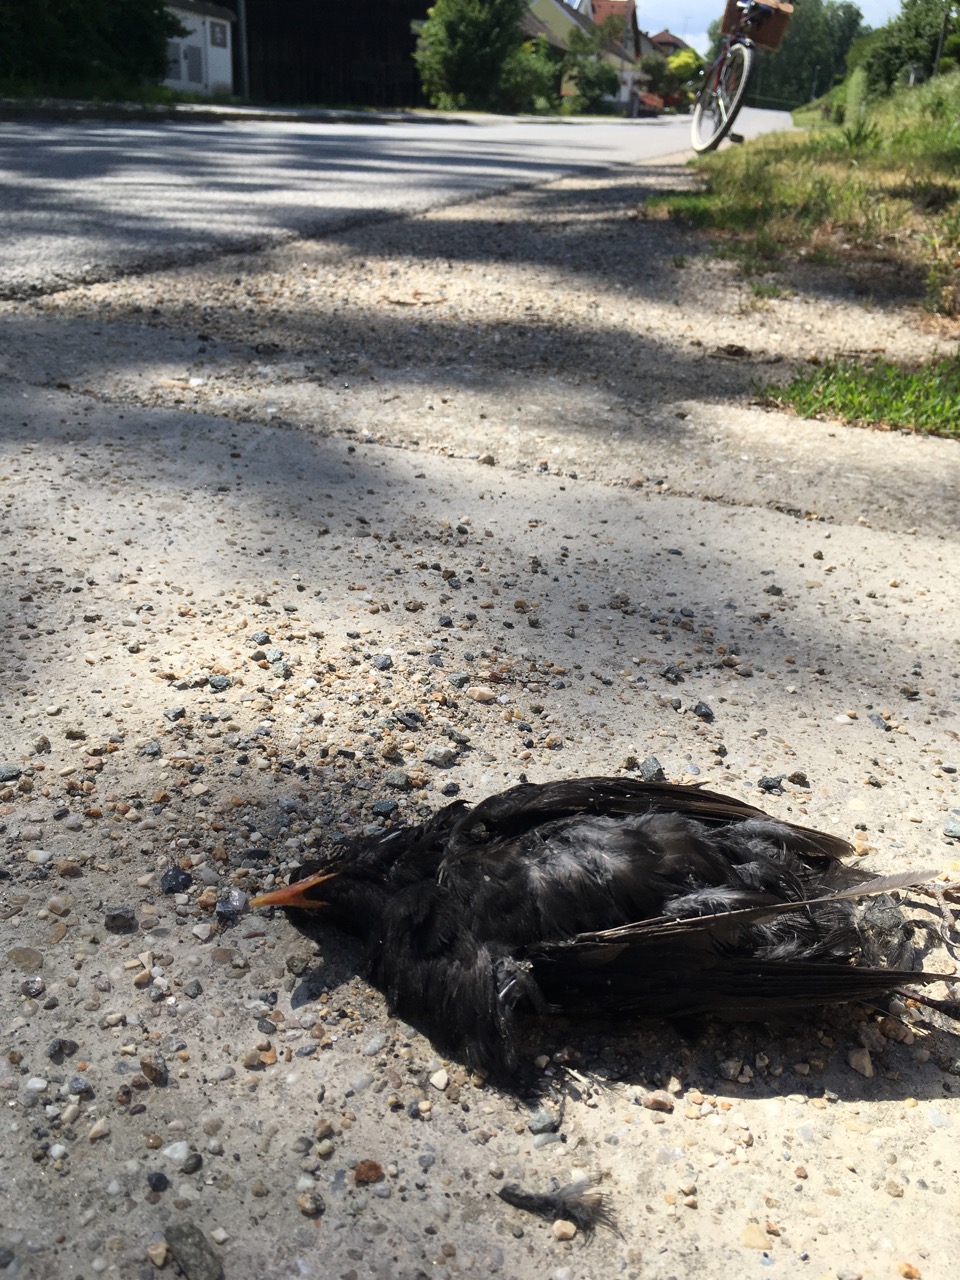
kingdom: Animalia
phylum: Chordata
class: Aves
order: Passeriformes
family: Turdidae
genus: Turdus
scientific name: Turdus merula
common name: Common blackbird
